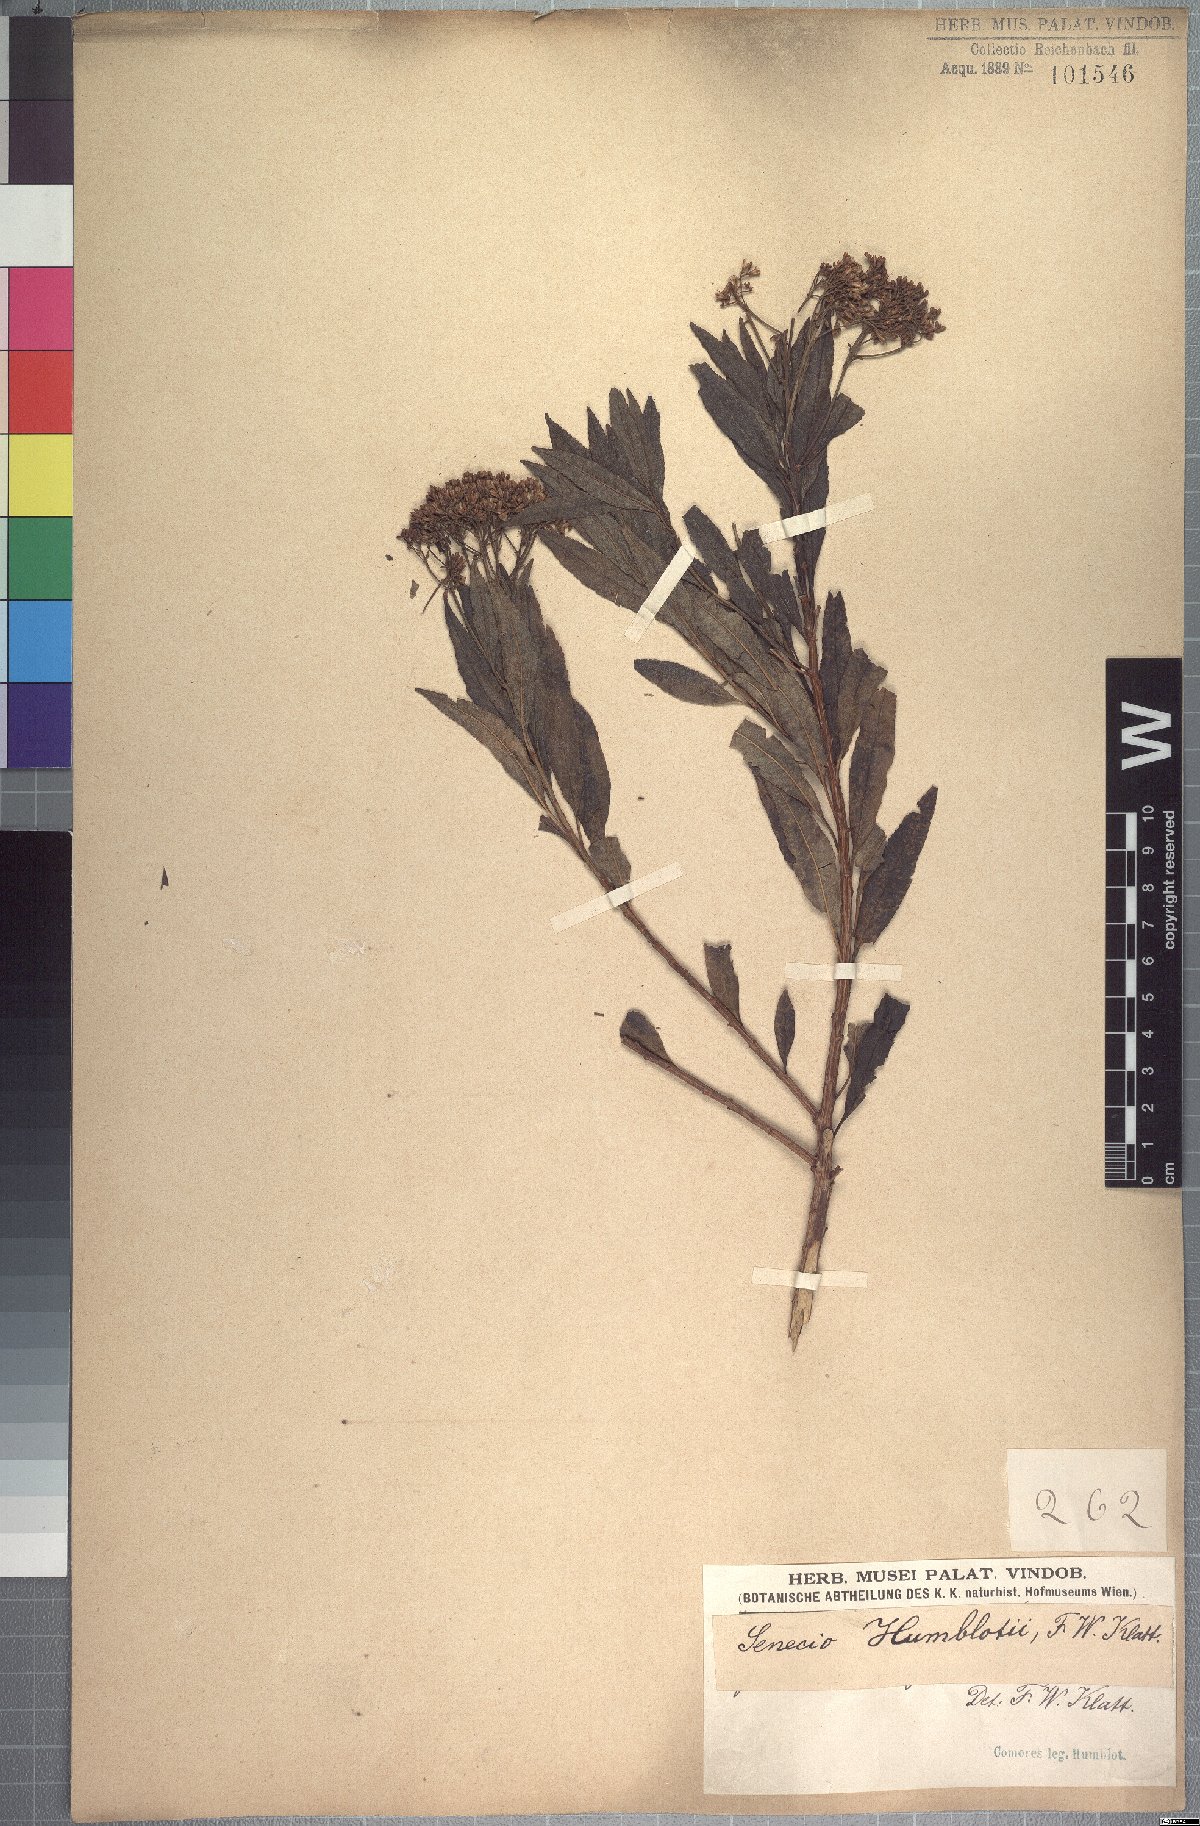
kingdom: Plantae
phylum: Tracheophyta
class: Magnoliopsida
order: Asterales
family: Asteraceae
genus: Hubertia
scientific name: Hubertia humblotii
